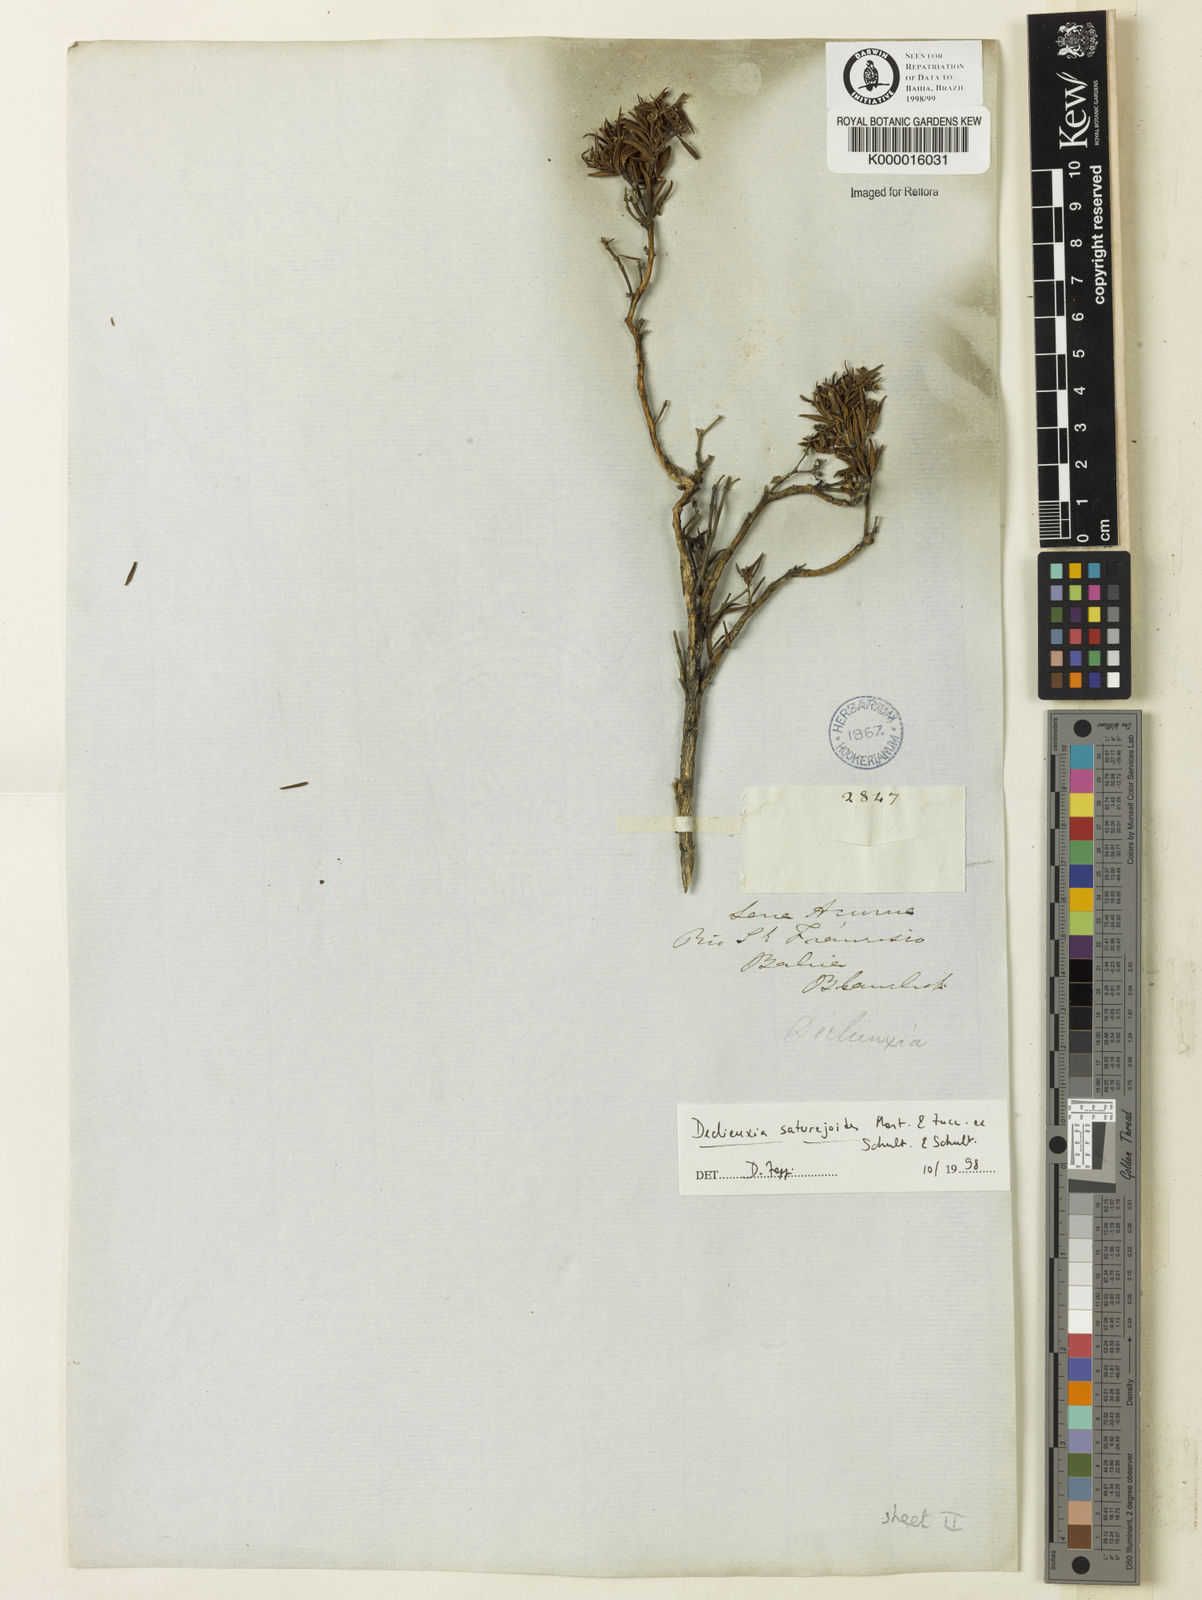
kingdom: Plantae
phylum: Tracheophyta
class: Magnoliopsida
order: Gentianales
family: Rubiaceae
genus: Declieuxia
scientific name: Declieuxia
